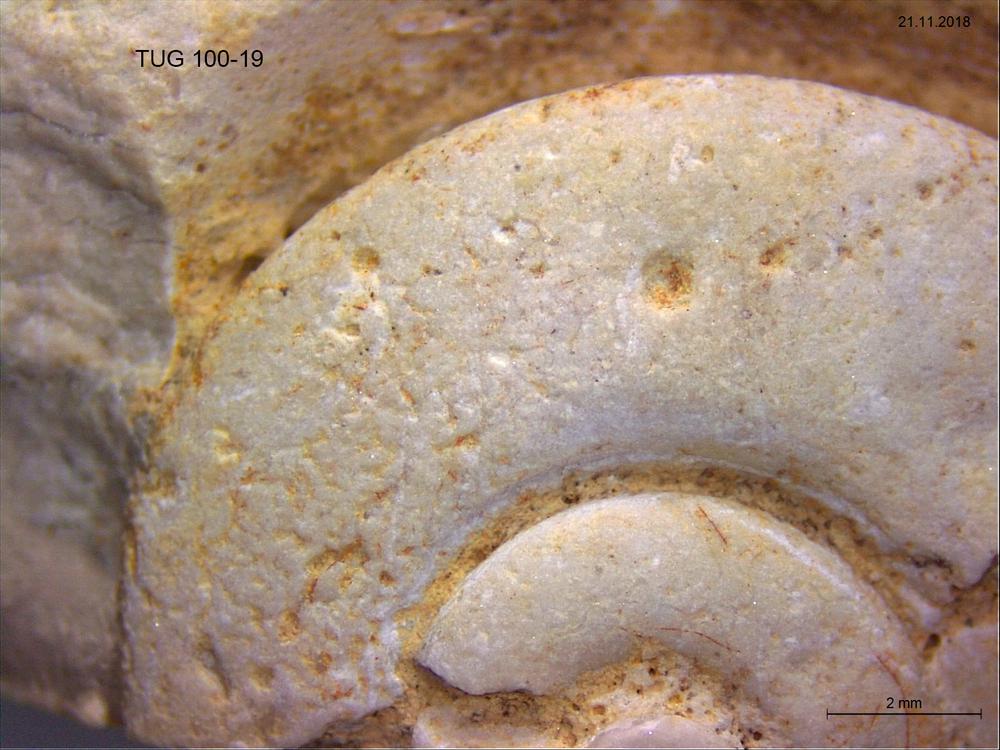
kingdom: Animalia
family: Coprulidae
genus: Coprulus
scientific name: Coprulus
